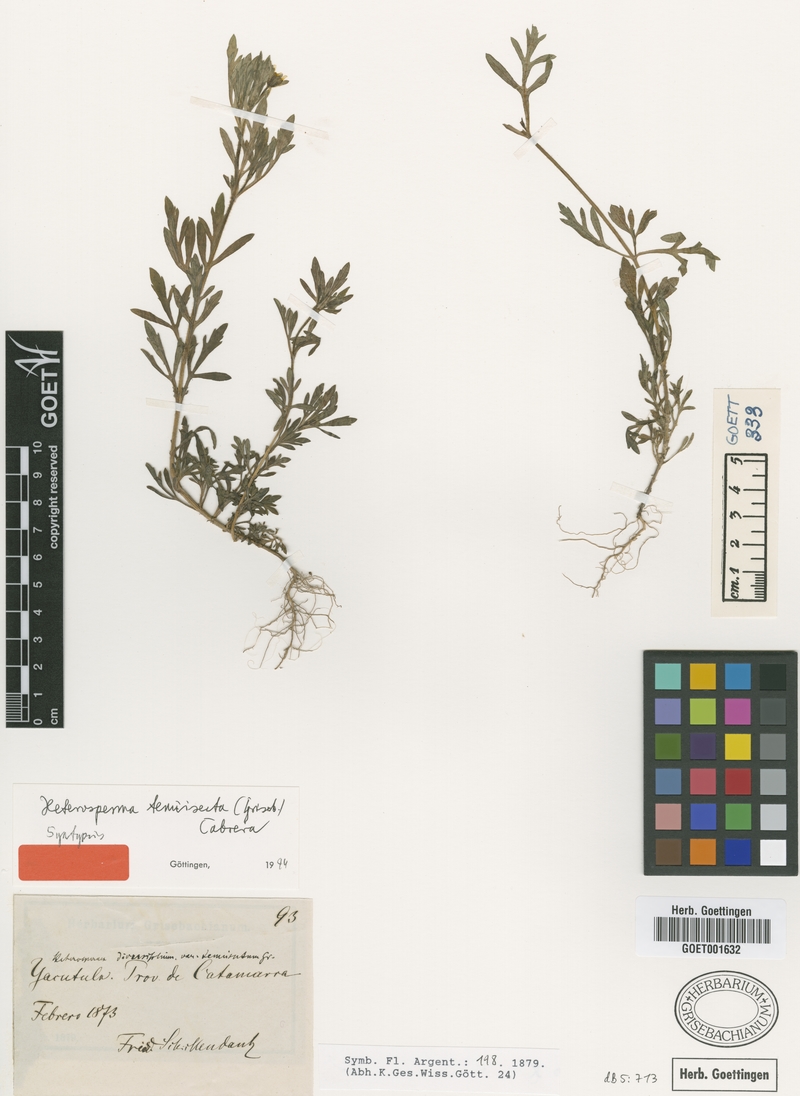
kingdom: Plantae
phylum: Tracheophyta
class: Magnoliopsida
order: Asterales
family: Asteraceae
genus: Heterosperma
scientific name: Heterosperma tenuisectum
